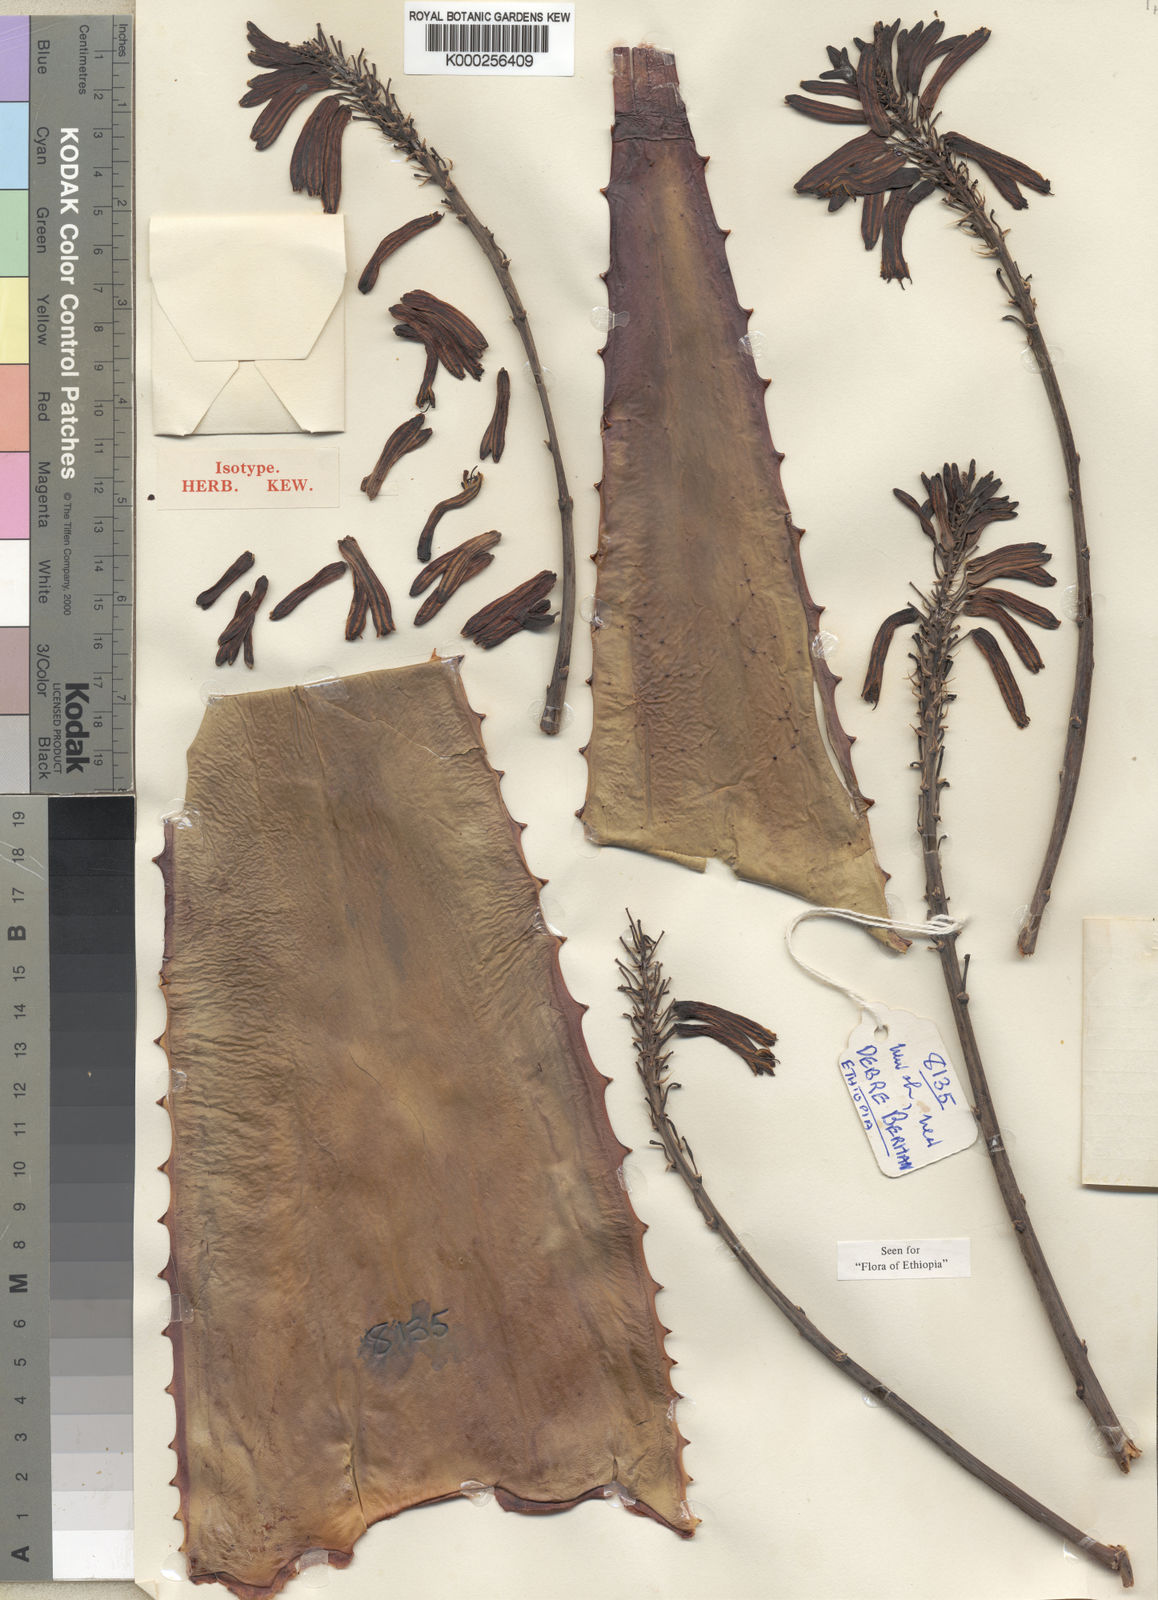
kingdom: Plantae
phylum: Tracheophyta
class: Liliopsida
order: Asparagales
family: Asphodelaceae
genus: Aloe
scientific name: Aloe debrana
